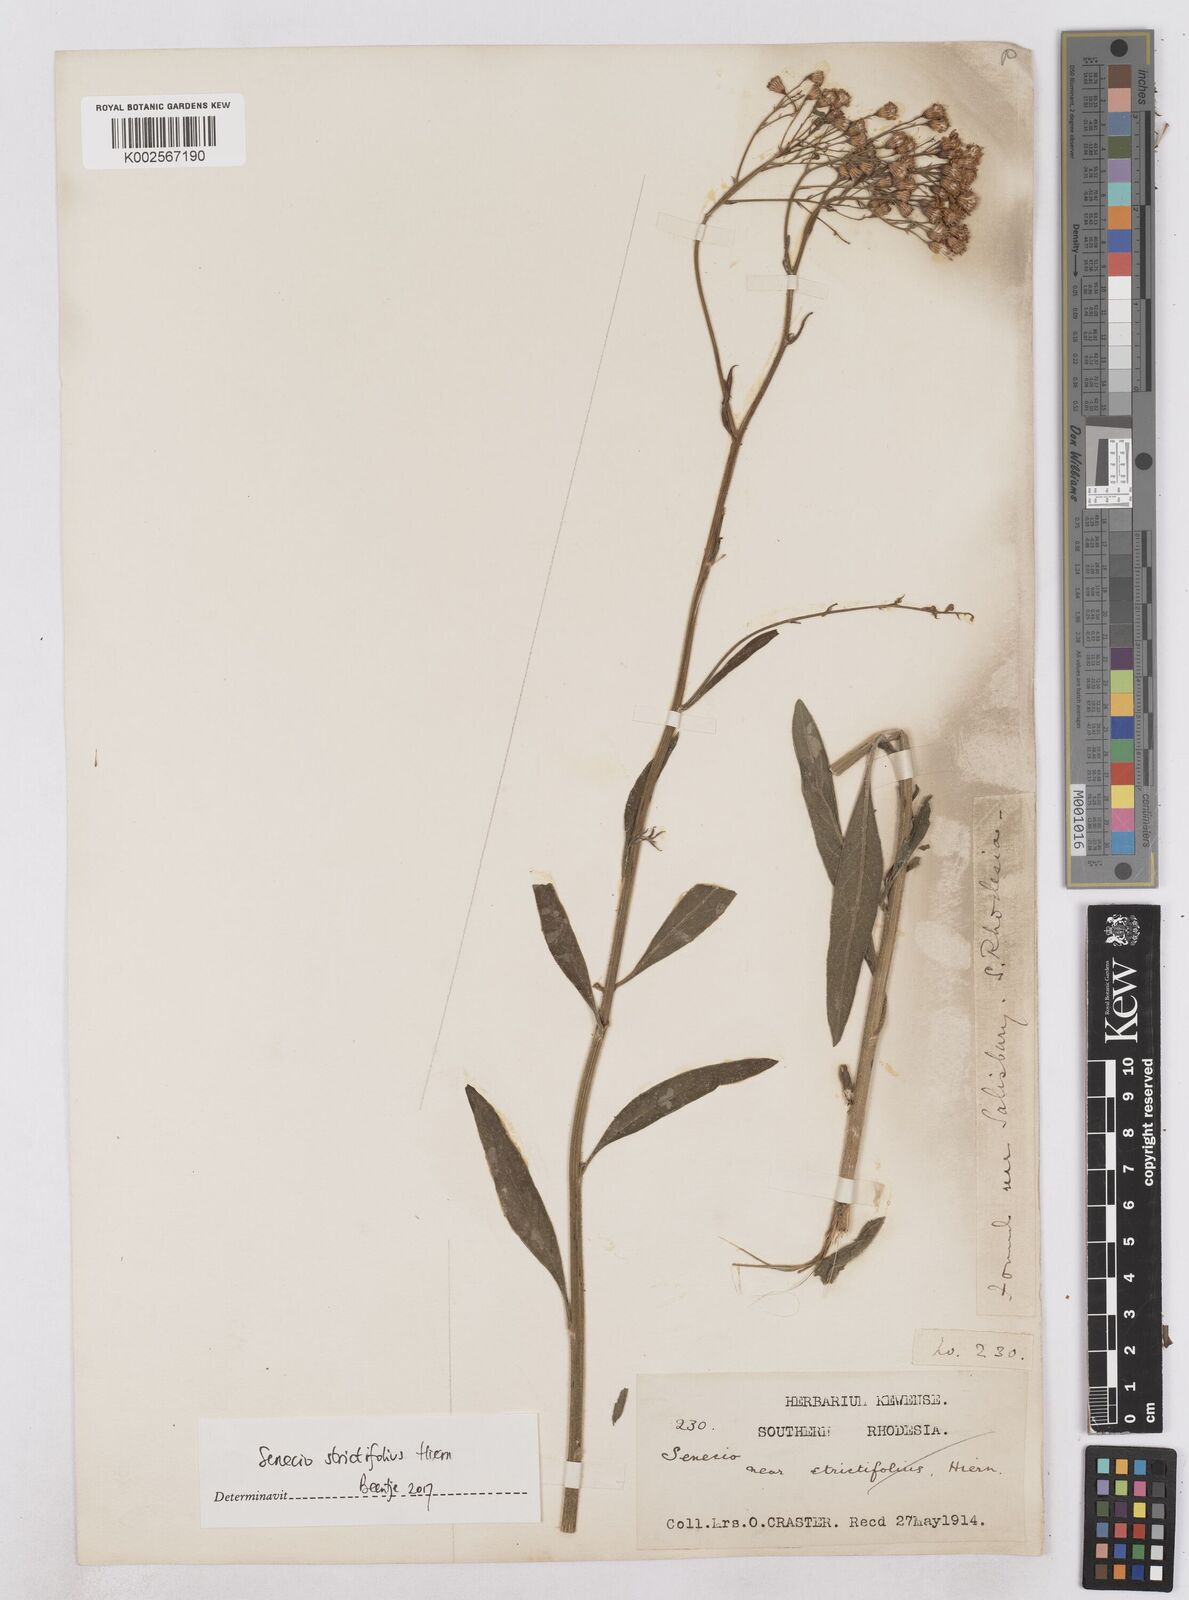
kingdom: Plantae
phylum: Tracheophyta
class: Magnoliopsida
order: Asterales
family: Asteraceae
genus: Senecio
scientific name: Senecio strictifolius
